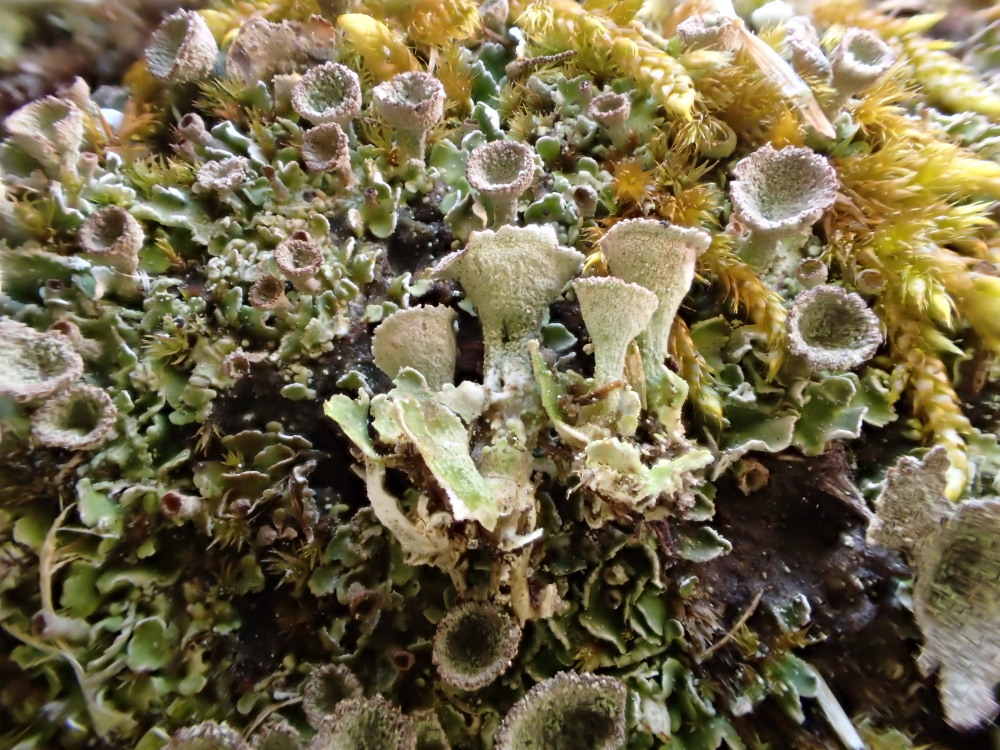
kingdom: Fungi
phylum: Ascomycota
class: Lecanoromycetes
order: Lecanorales
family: Cladoniaceae
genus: Cladonia
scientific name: Cladonia humilis
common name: lav bægerlav
